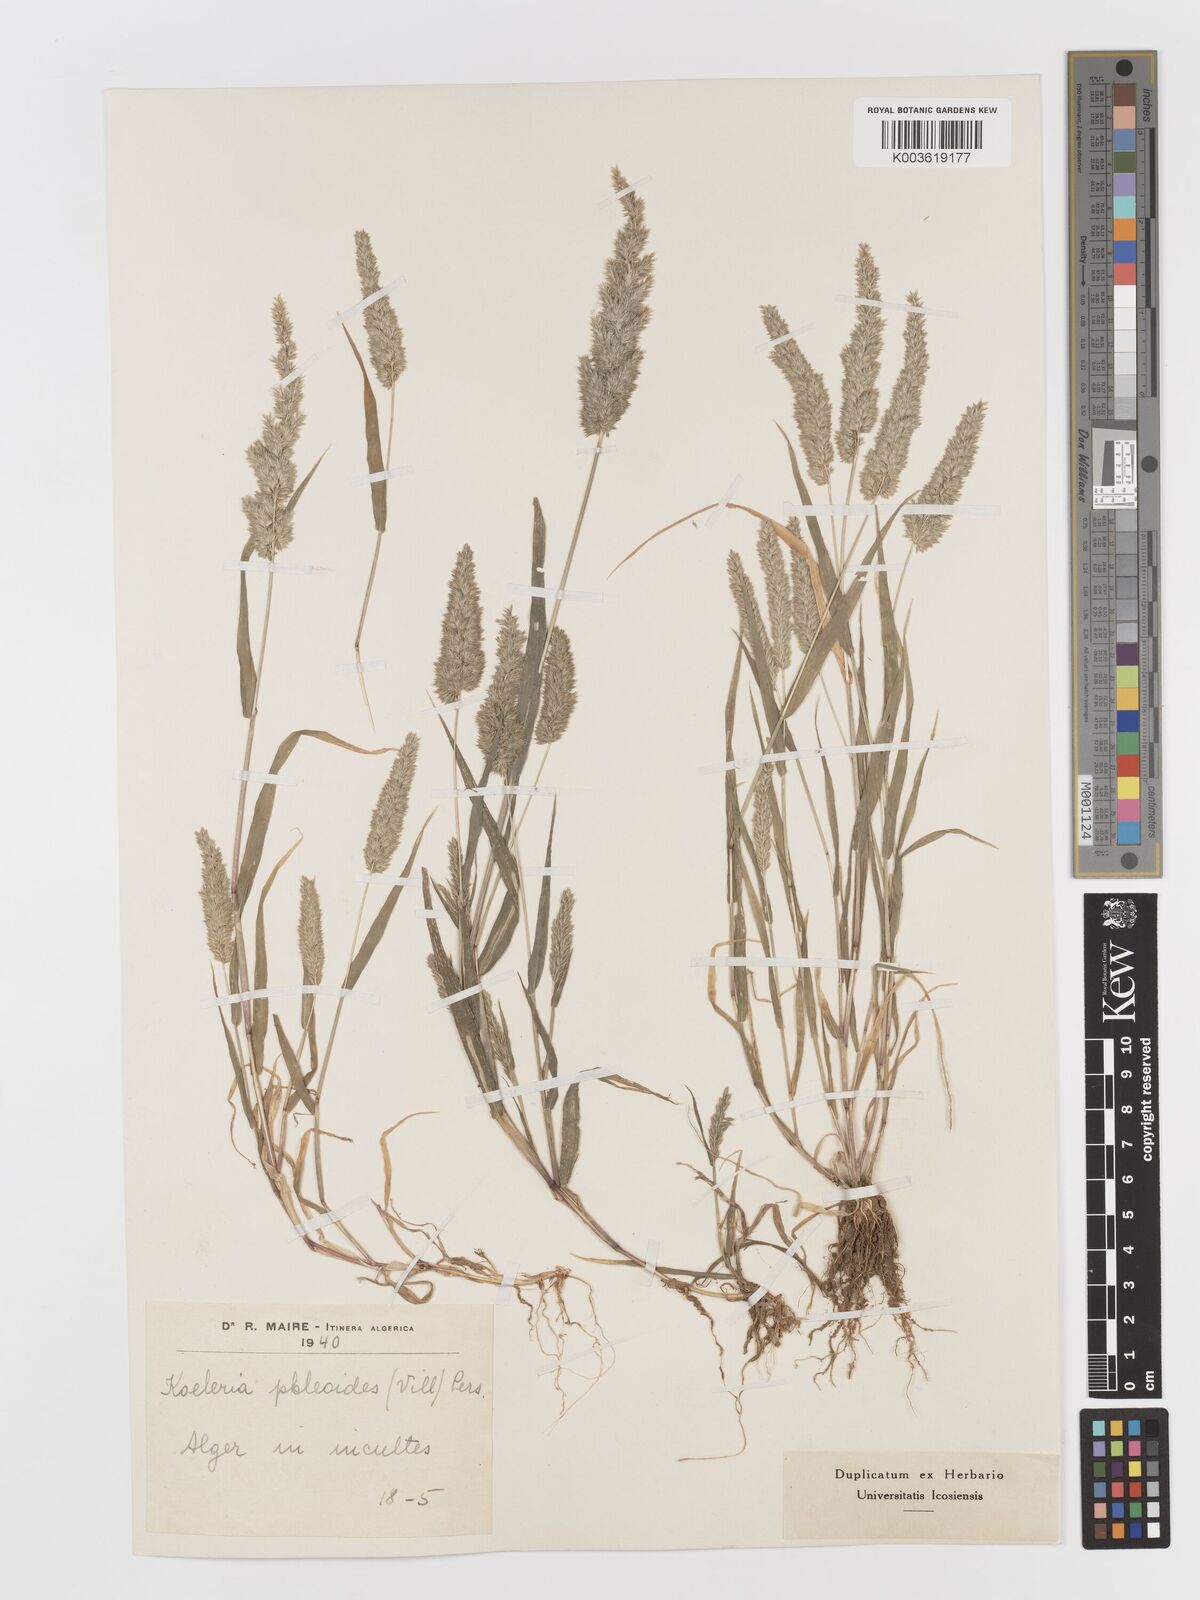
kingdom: Plantae
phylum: Tracheophyta
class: Liliopsida
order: Poales
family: Poaceae
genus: Rostraria
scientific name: Rostraria cristata
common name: Mediterranean hair-grass
